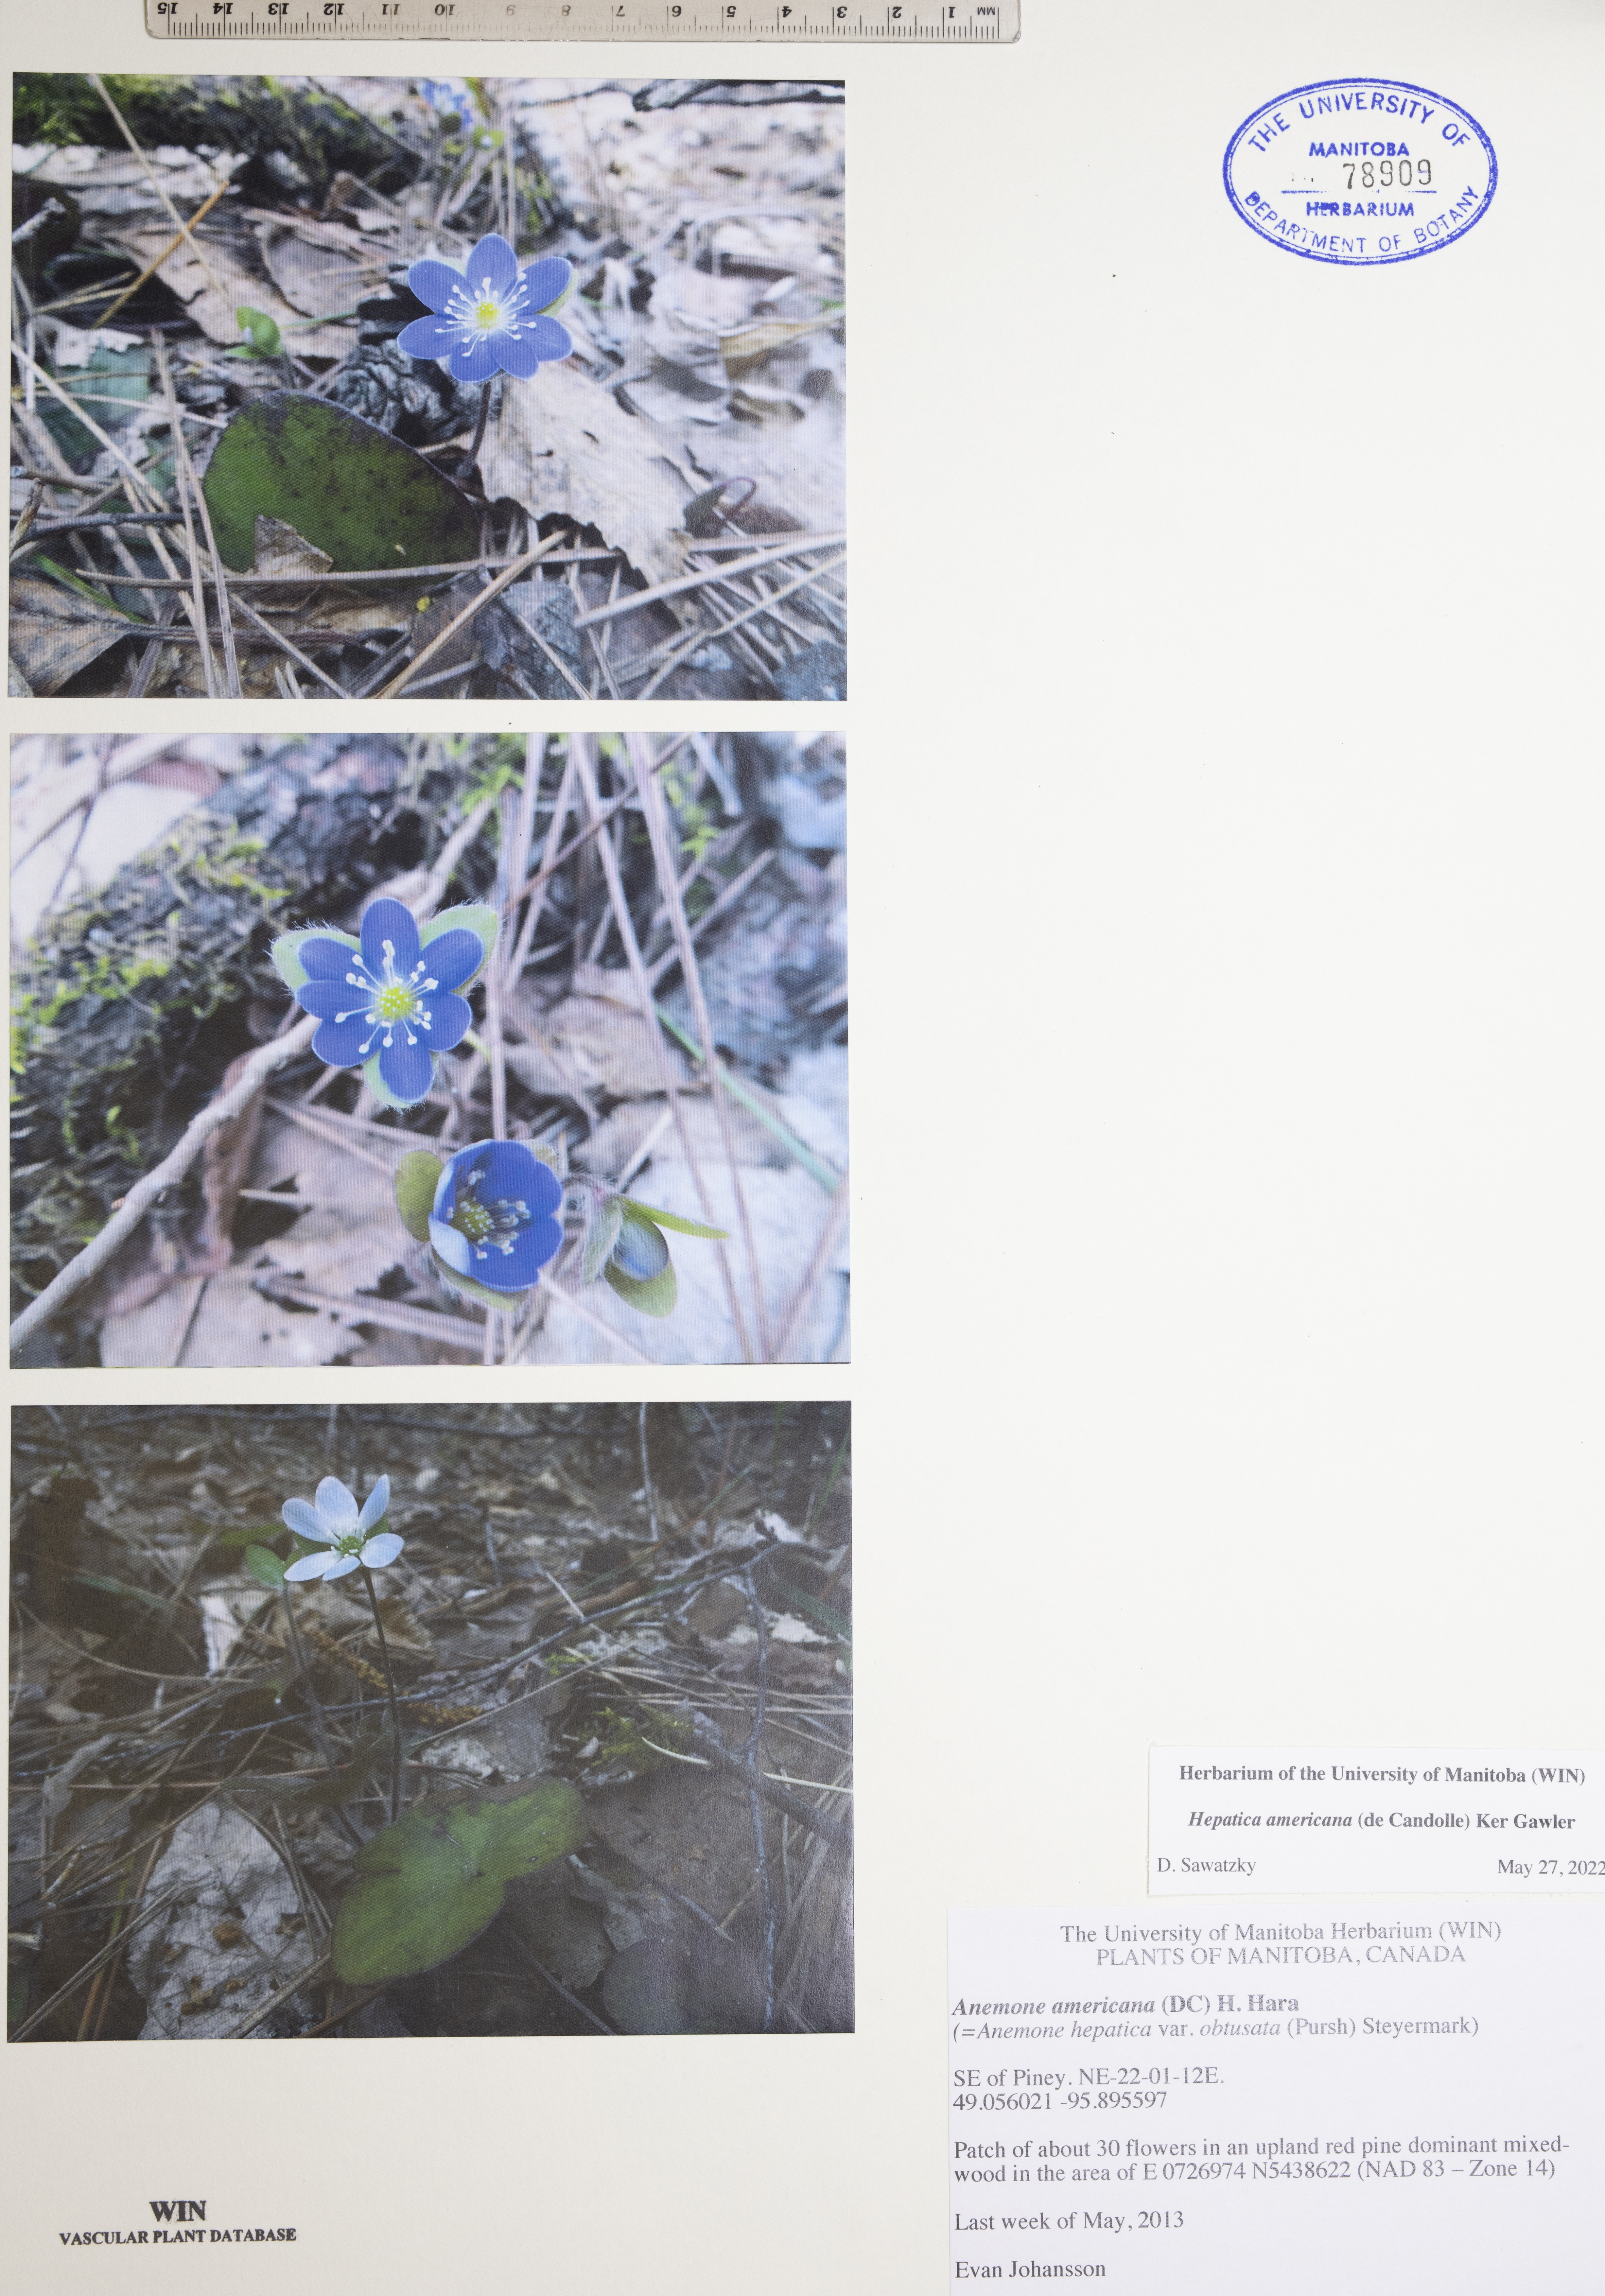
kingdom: Plantae
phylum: Tracheophyta
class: Magnoliopsida
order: Ranunculales
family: Ranunculaceae
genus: Hepatica
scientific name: Hepatica americana
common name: American hepatica
